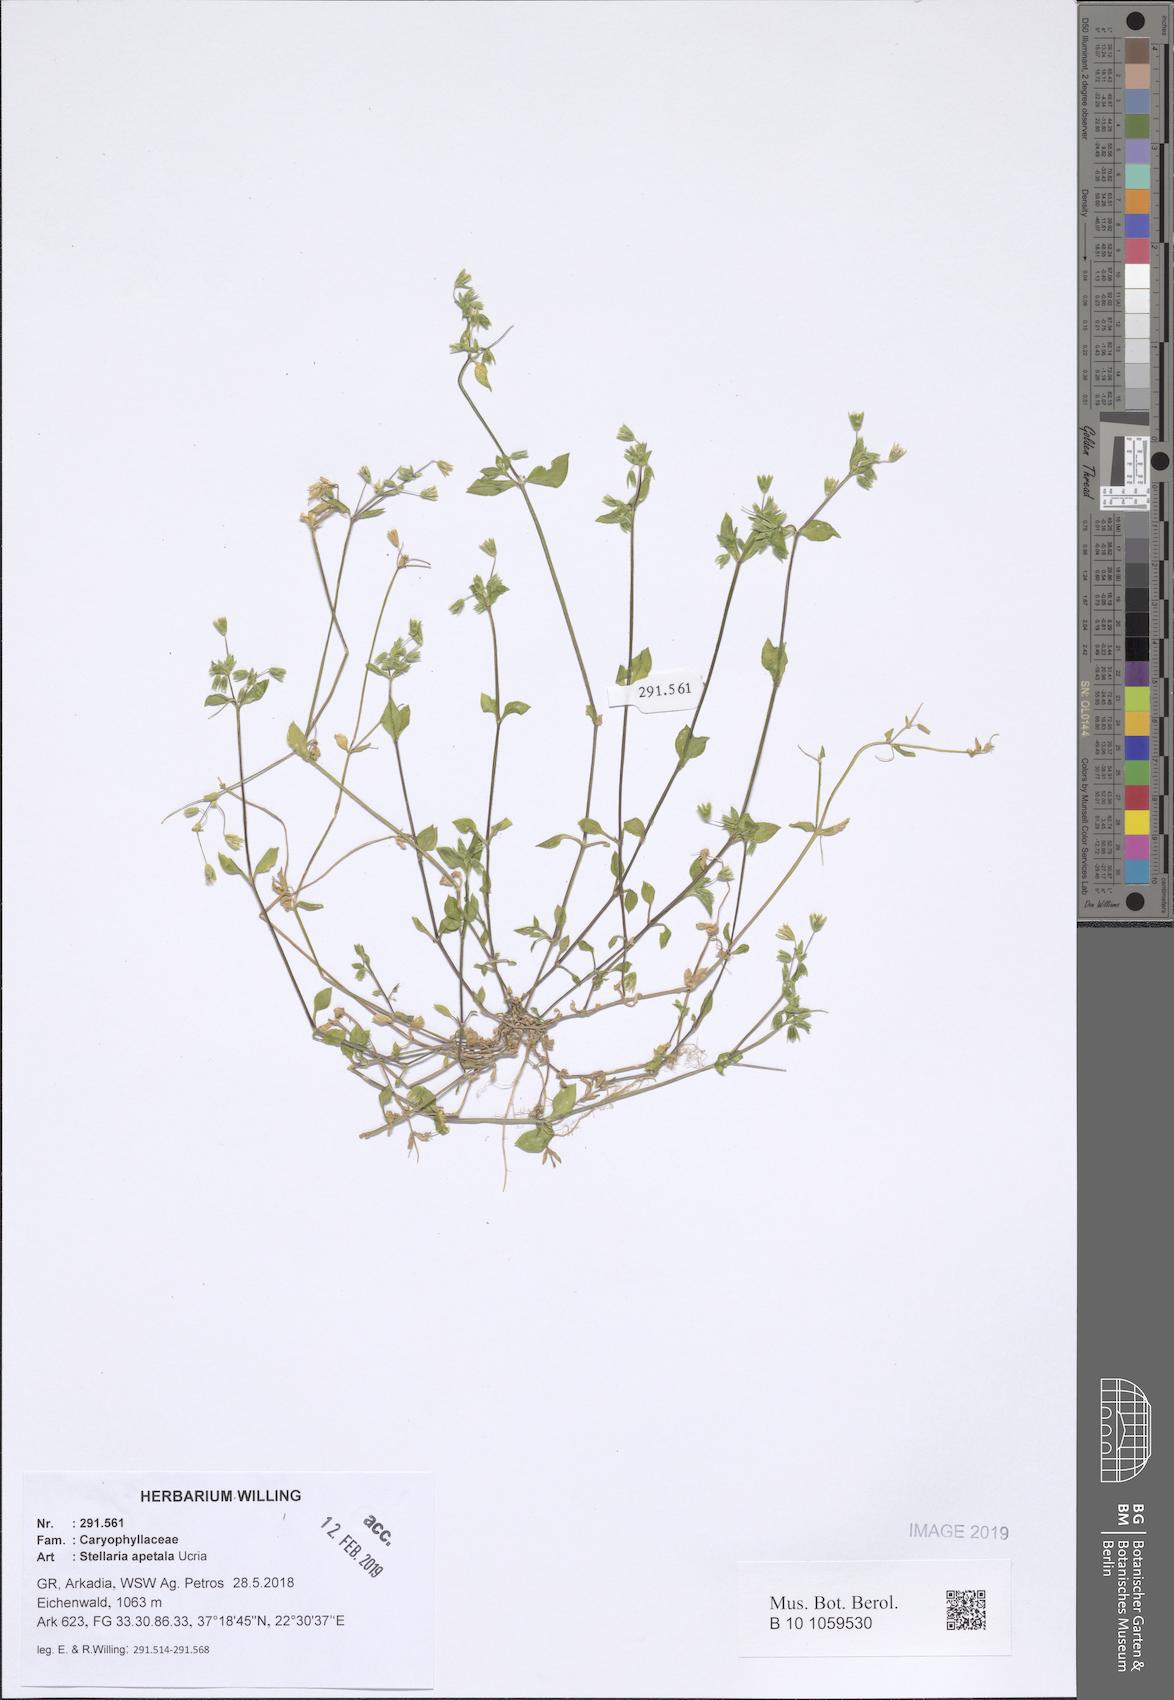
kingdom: Plantae
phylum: Tracheophyta
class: Magnoliopsida
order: Caryophyllales
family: Caryophyllaceae
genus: Stellaria
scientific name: Stellaria apetala
